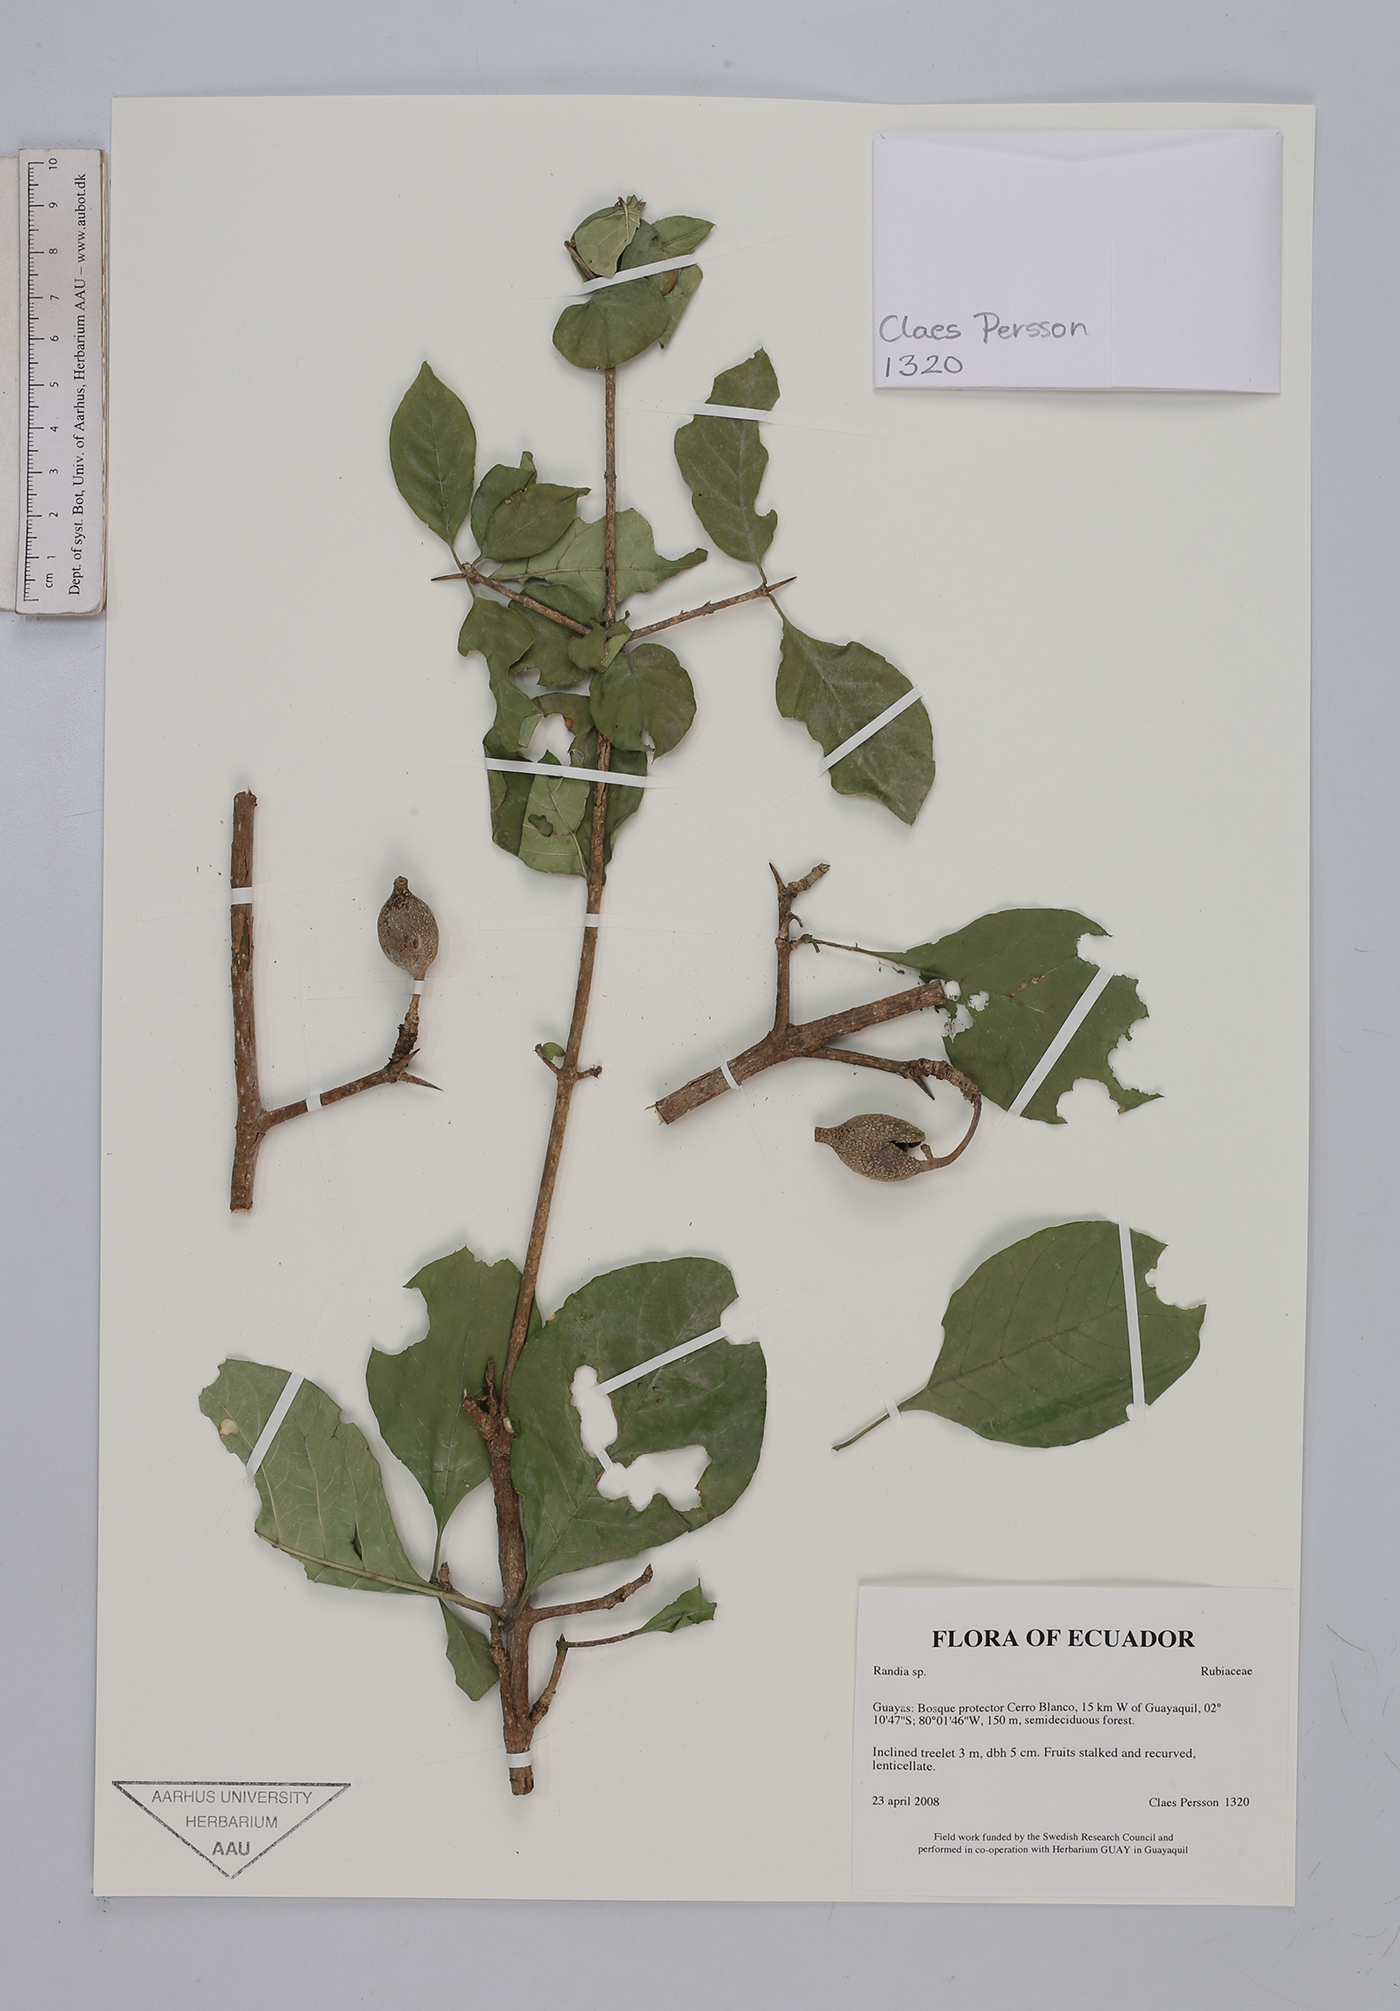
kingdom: Plantae
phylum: Tracheophyta
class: Magnoliopsida
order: Gentianales
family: Rubiaceae
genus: Randia
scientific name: Randia
